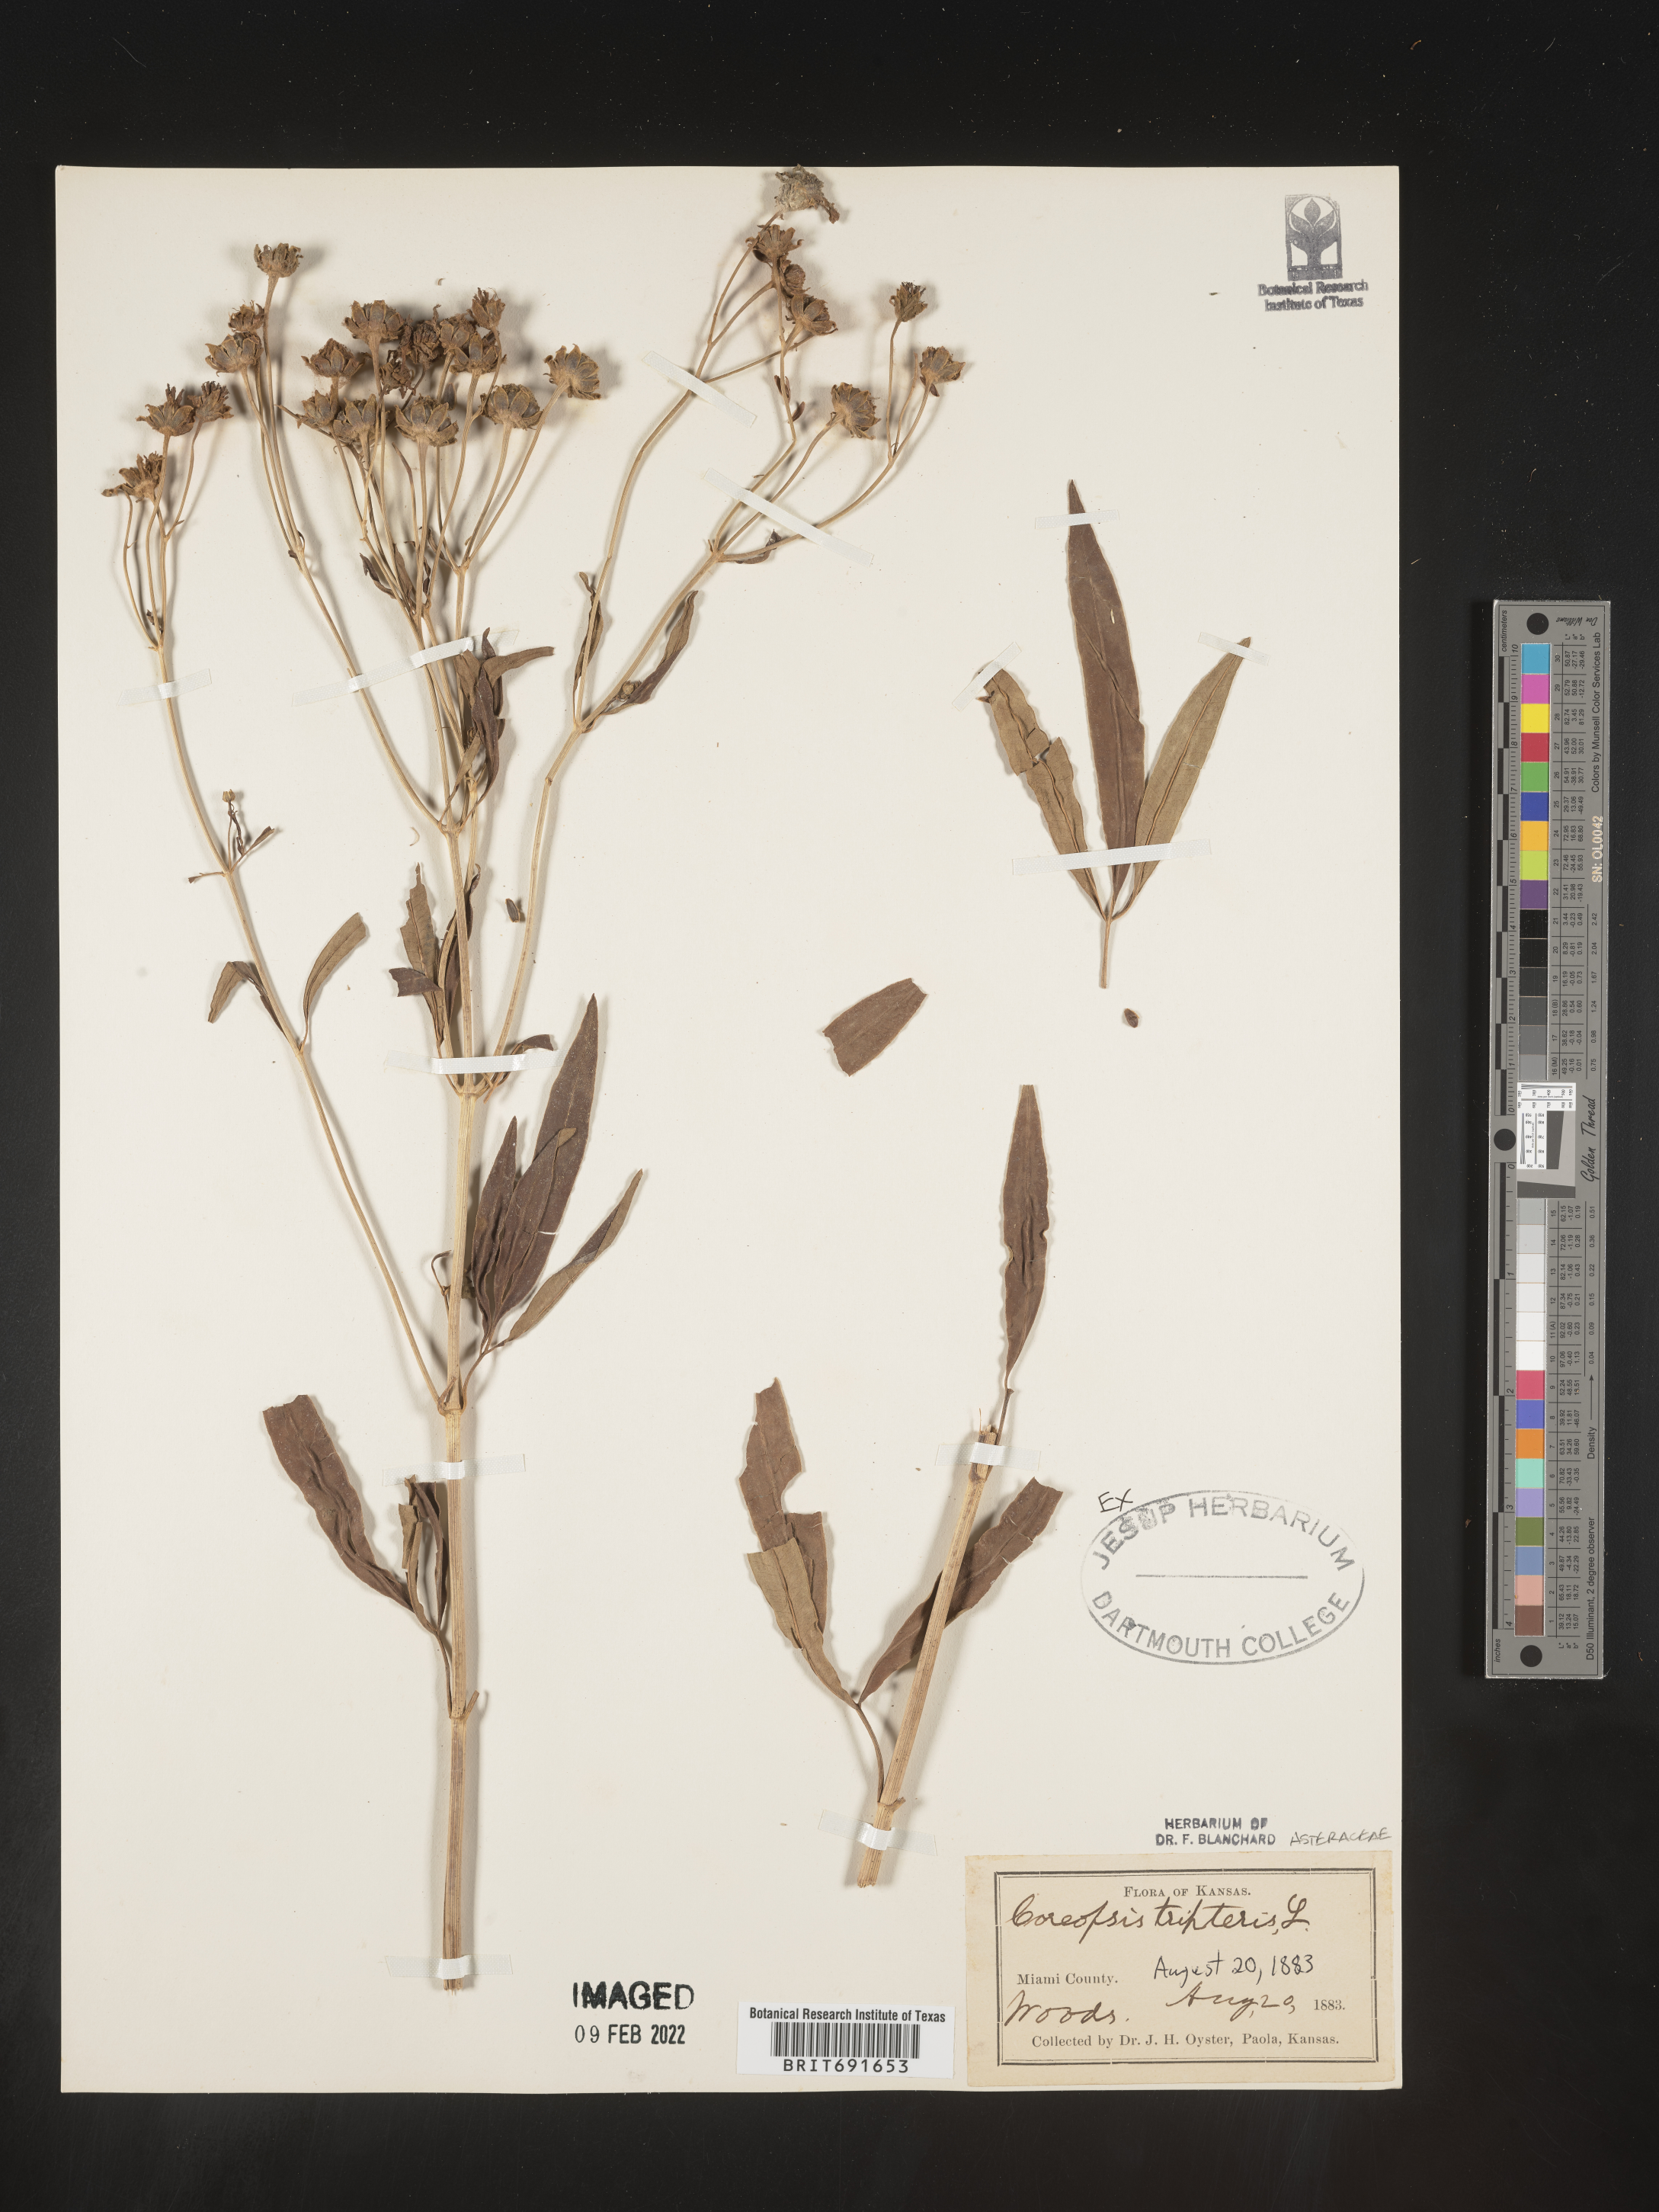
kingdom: Plantae
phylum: Tracheophyta
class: Magnoliopsida
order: Asterales
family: Asteraceae
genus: Coreopsis
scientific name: Coreopsis tripteris
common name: Tall coreopsis
